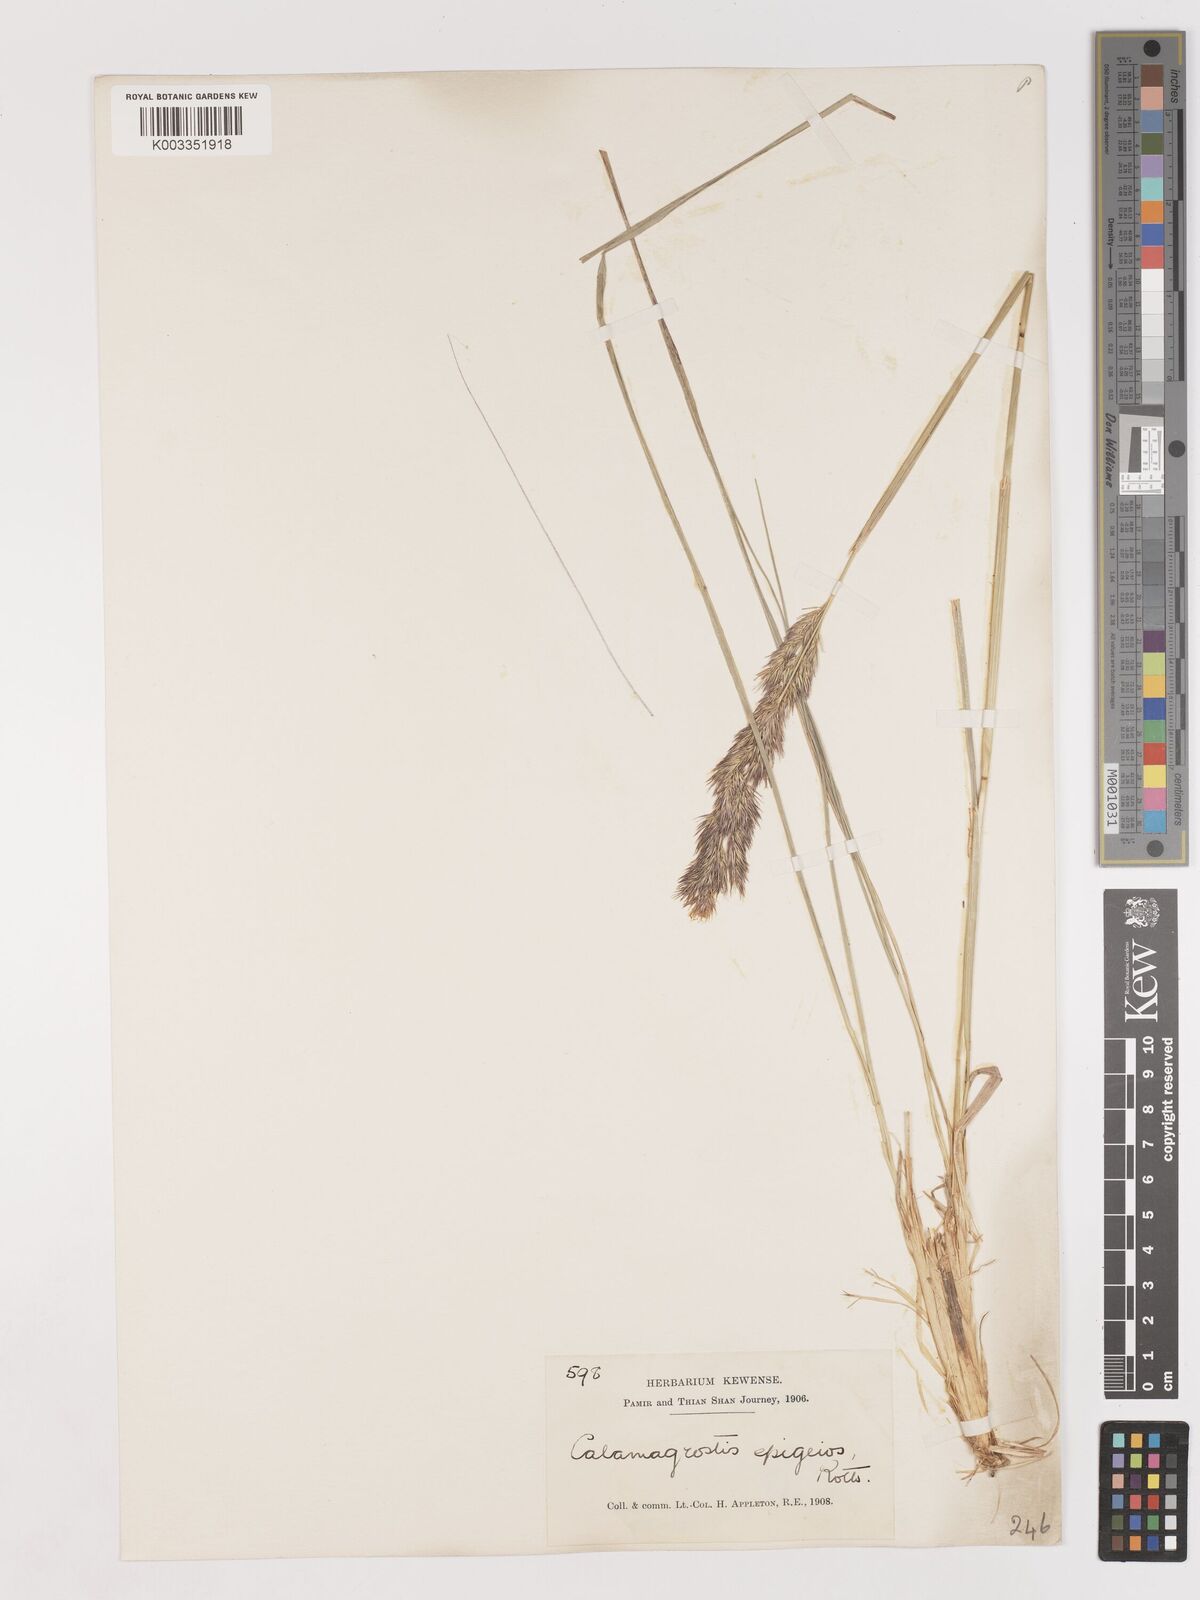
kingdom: Plantae
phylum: Tracheophyta
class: Liliopsida
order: Poales
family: Poaceae
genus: Calamagrostis
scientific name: Calamagrostis epigejos
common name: Wood small-reed
